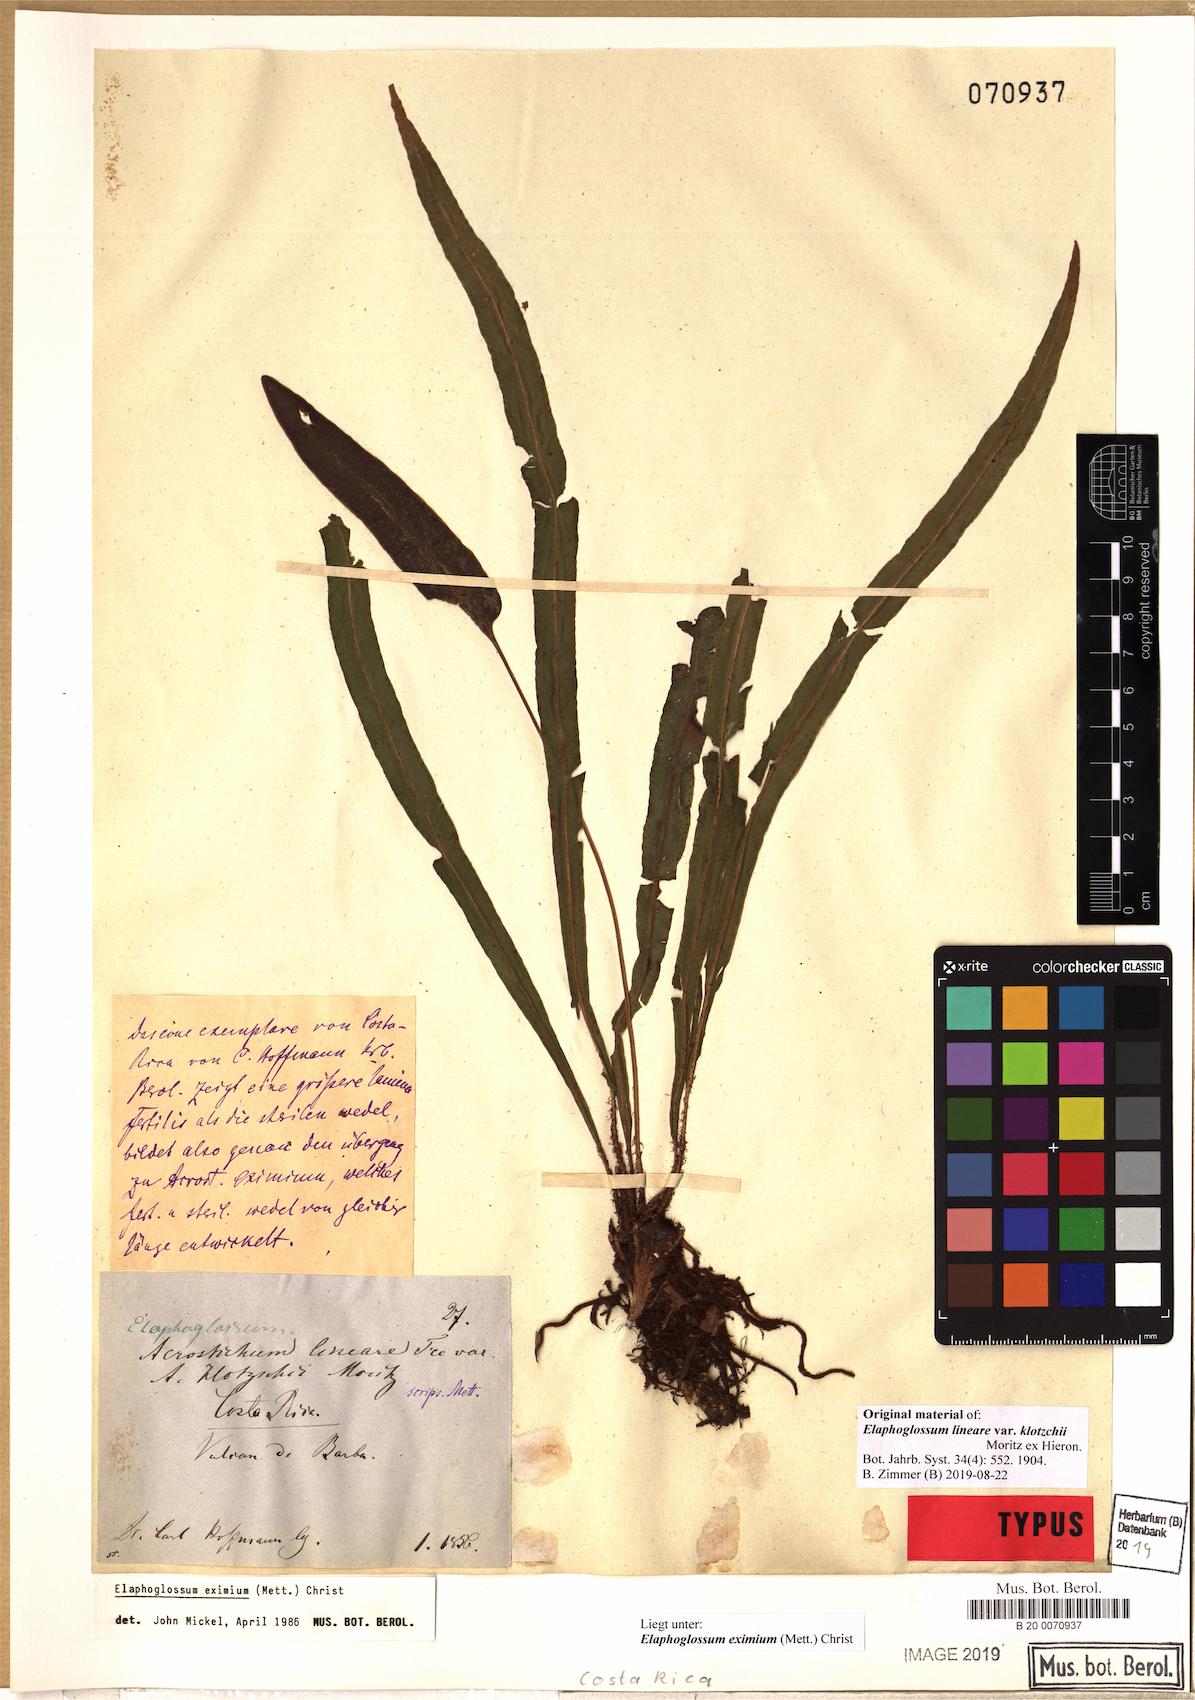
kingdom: Plantae
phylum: Tracheophyta
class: Polypodiopsida
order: Polypodiales
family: Dryopteridaceae
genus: Elaphoglossum
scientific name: Elaphoglossum eximium
